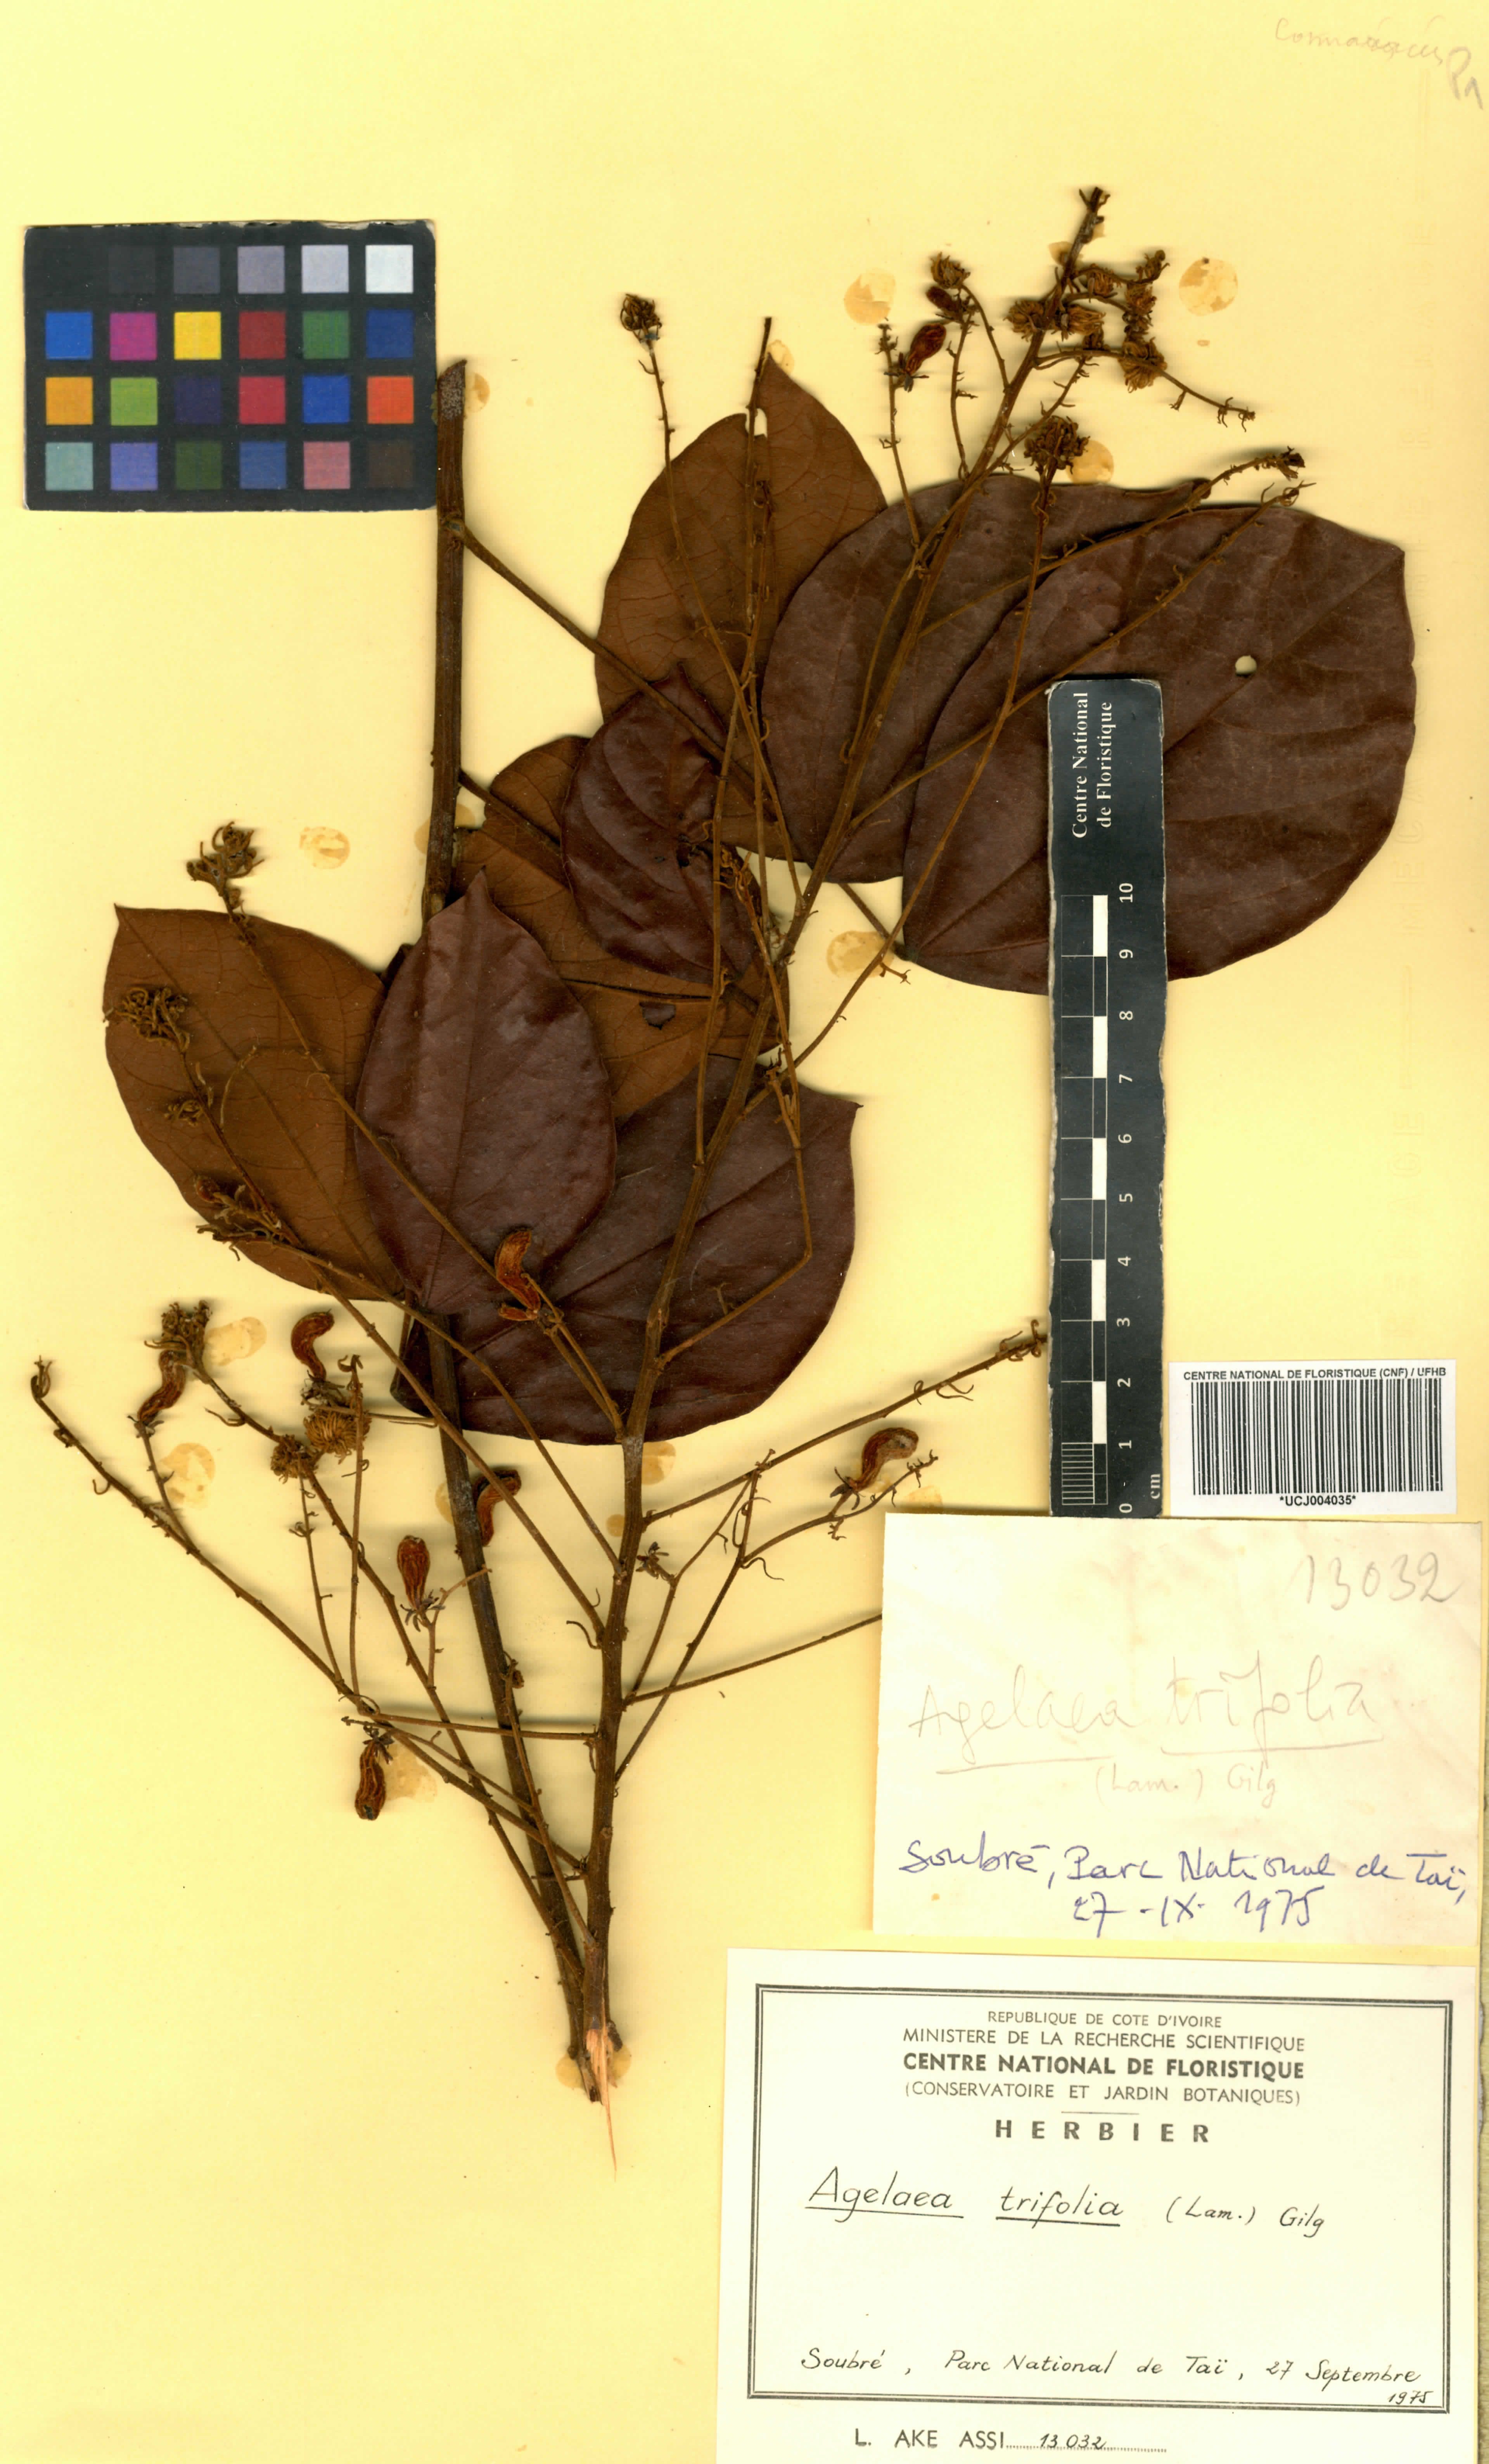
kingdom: Plantae
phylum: Tracheophyta
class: Magnoliopsida
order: Oxalidales
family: Connaraceae
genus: Agelaea
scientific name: Agelaea pentagyna
